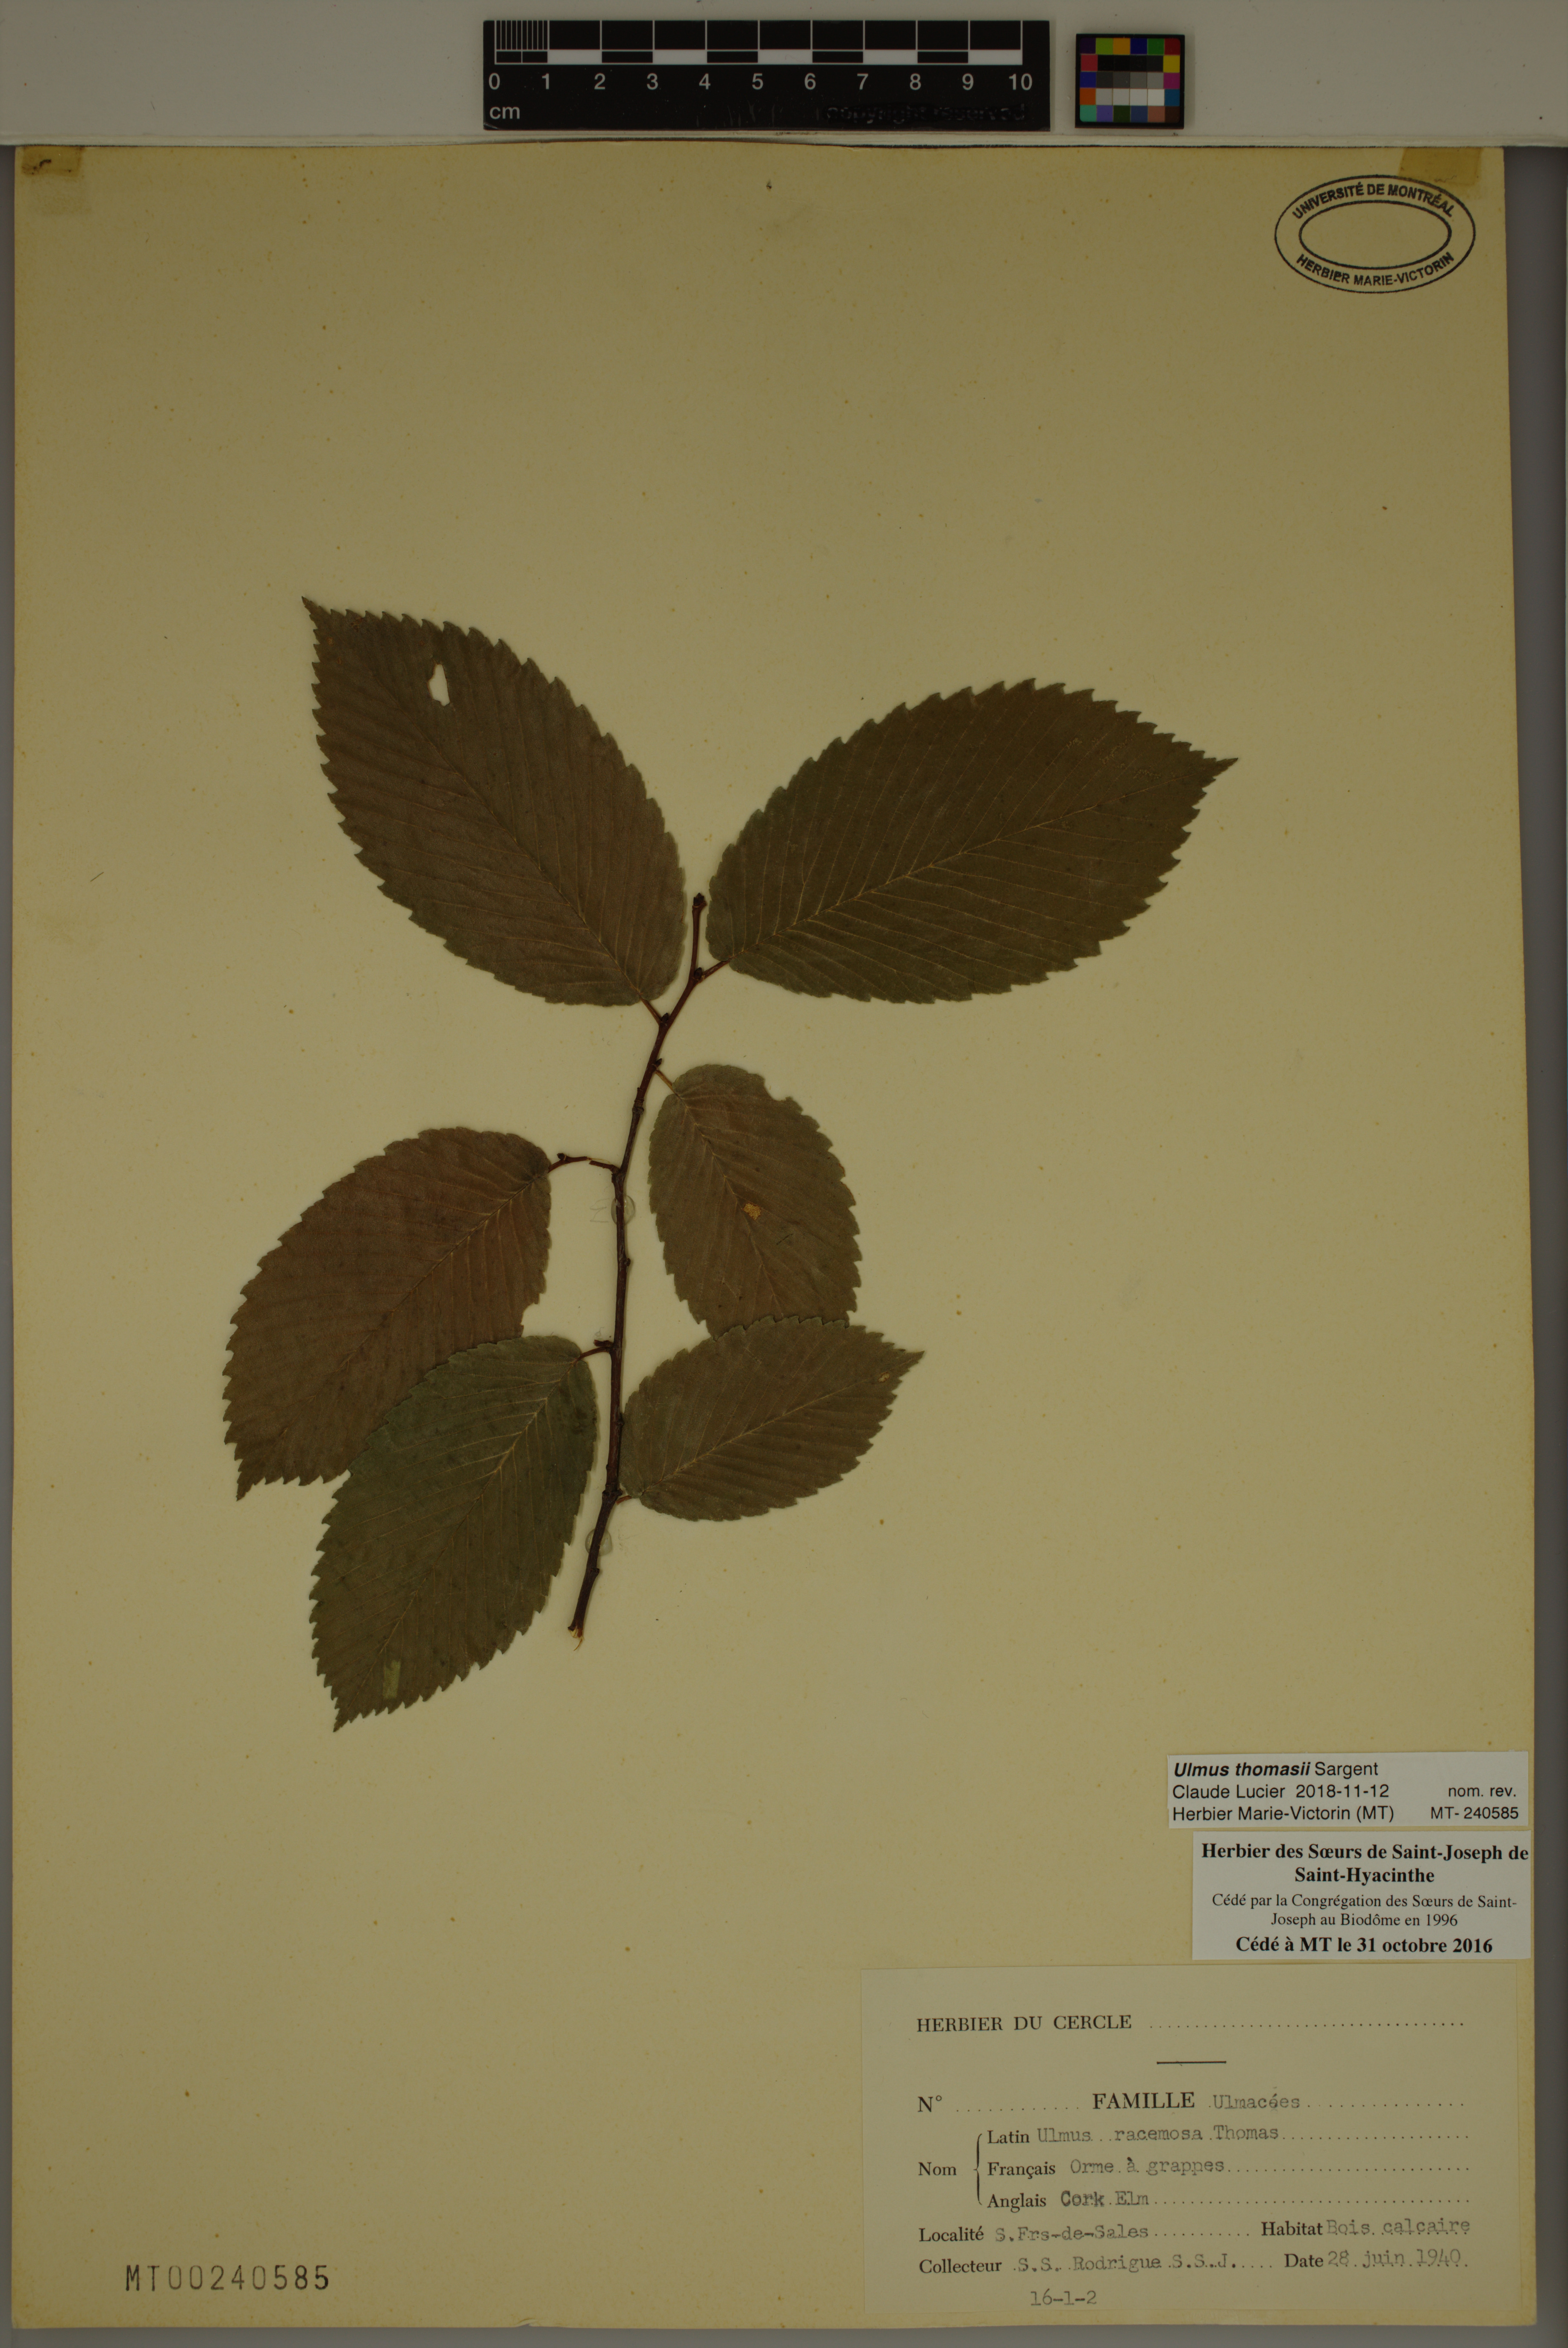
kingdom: Plantae
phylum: Tracheophyta
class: Magnoliopsida
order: Rosales
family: Ulmaceae
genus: Ulmus
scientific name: Ulmus thomasii
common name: Rock elm
